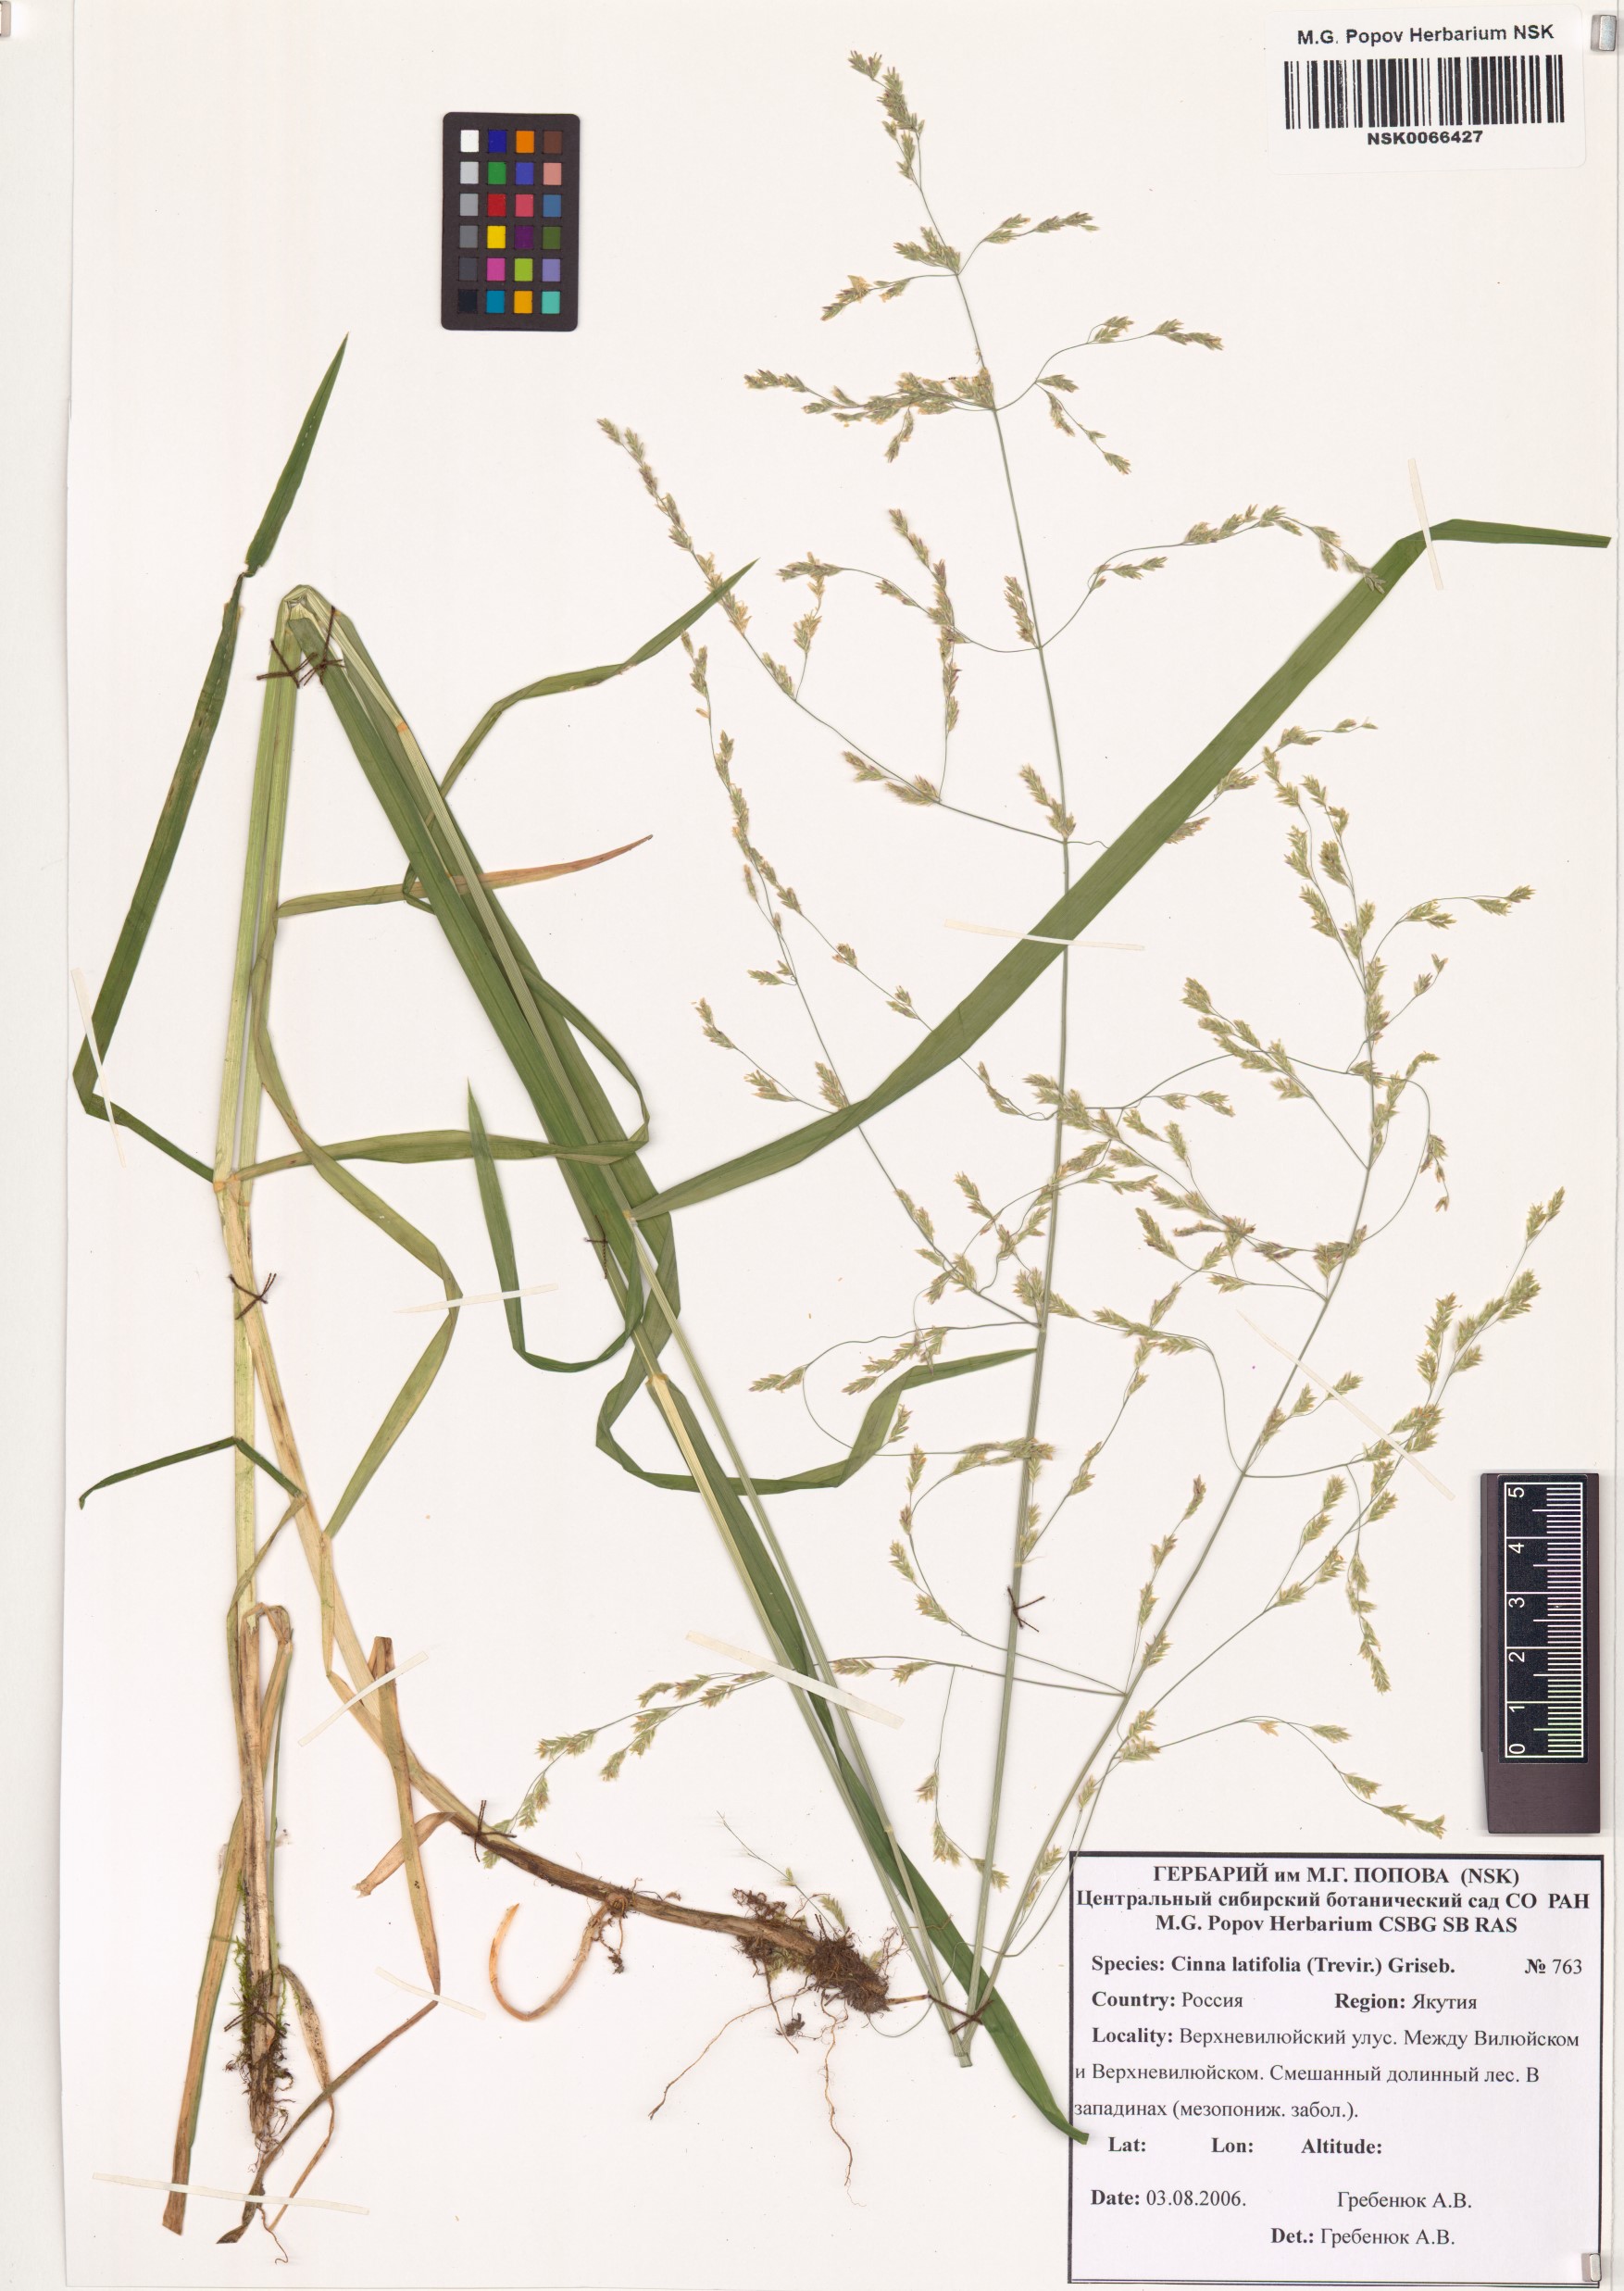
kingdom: Plantae
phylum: Tracheophyta
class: Liliopsida
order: Poales
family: Poaceae
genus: Cinna
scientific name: Cinna latifolia
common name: Drooping woodreed
